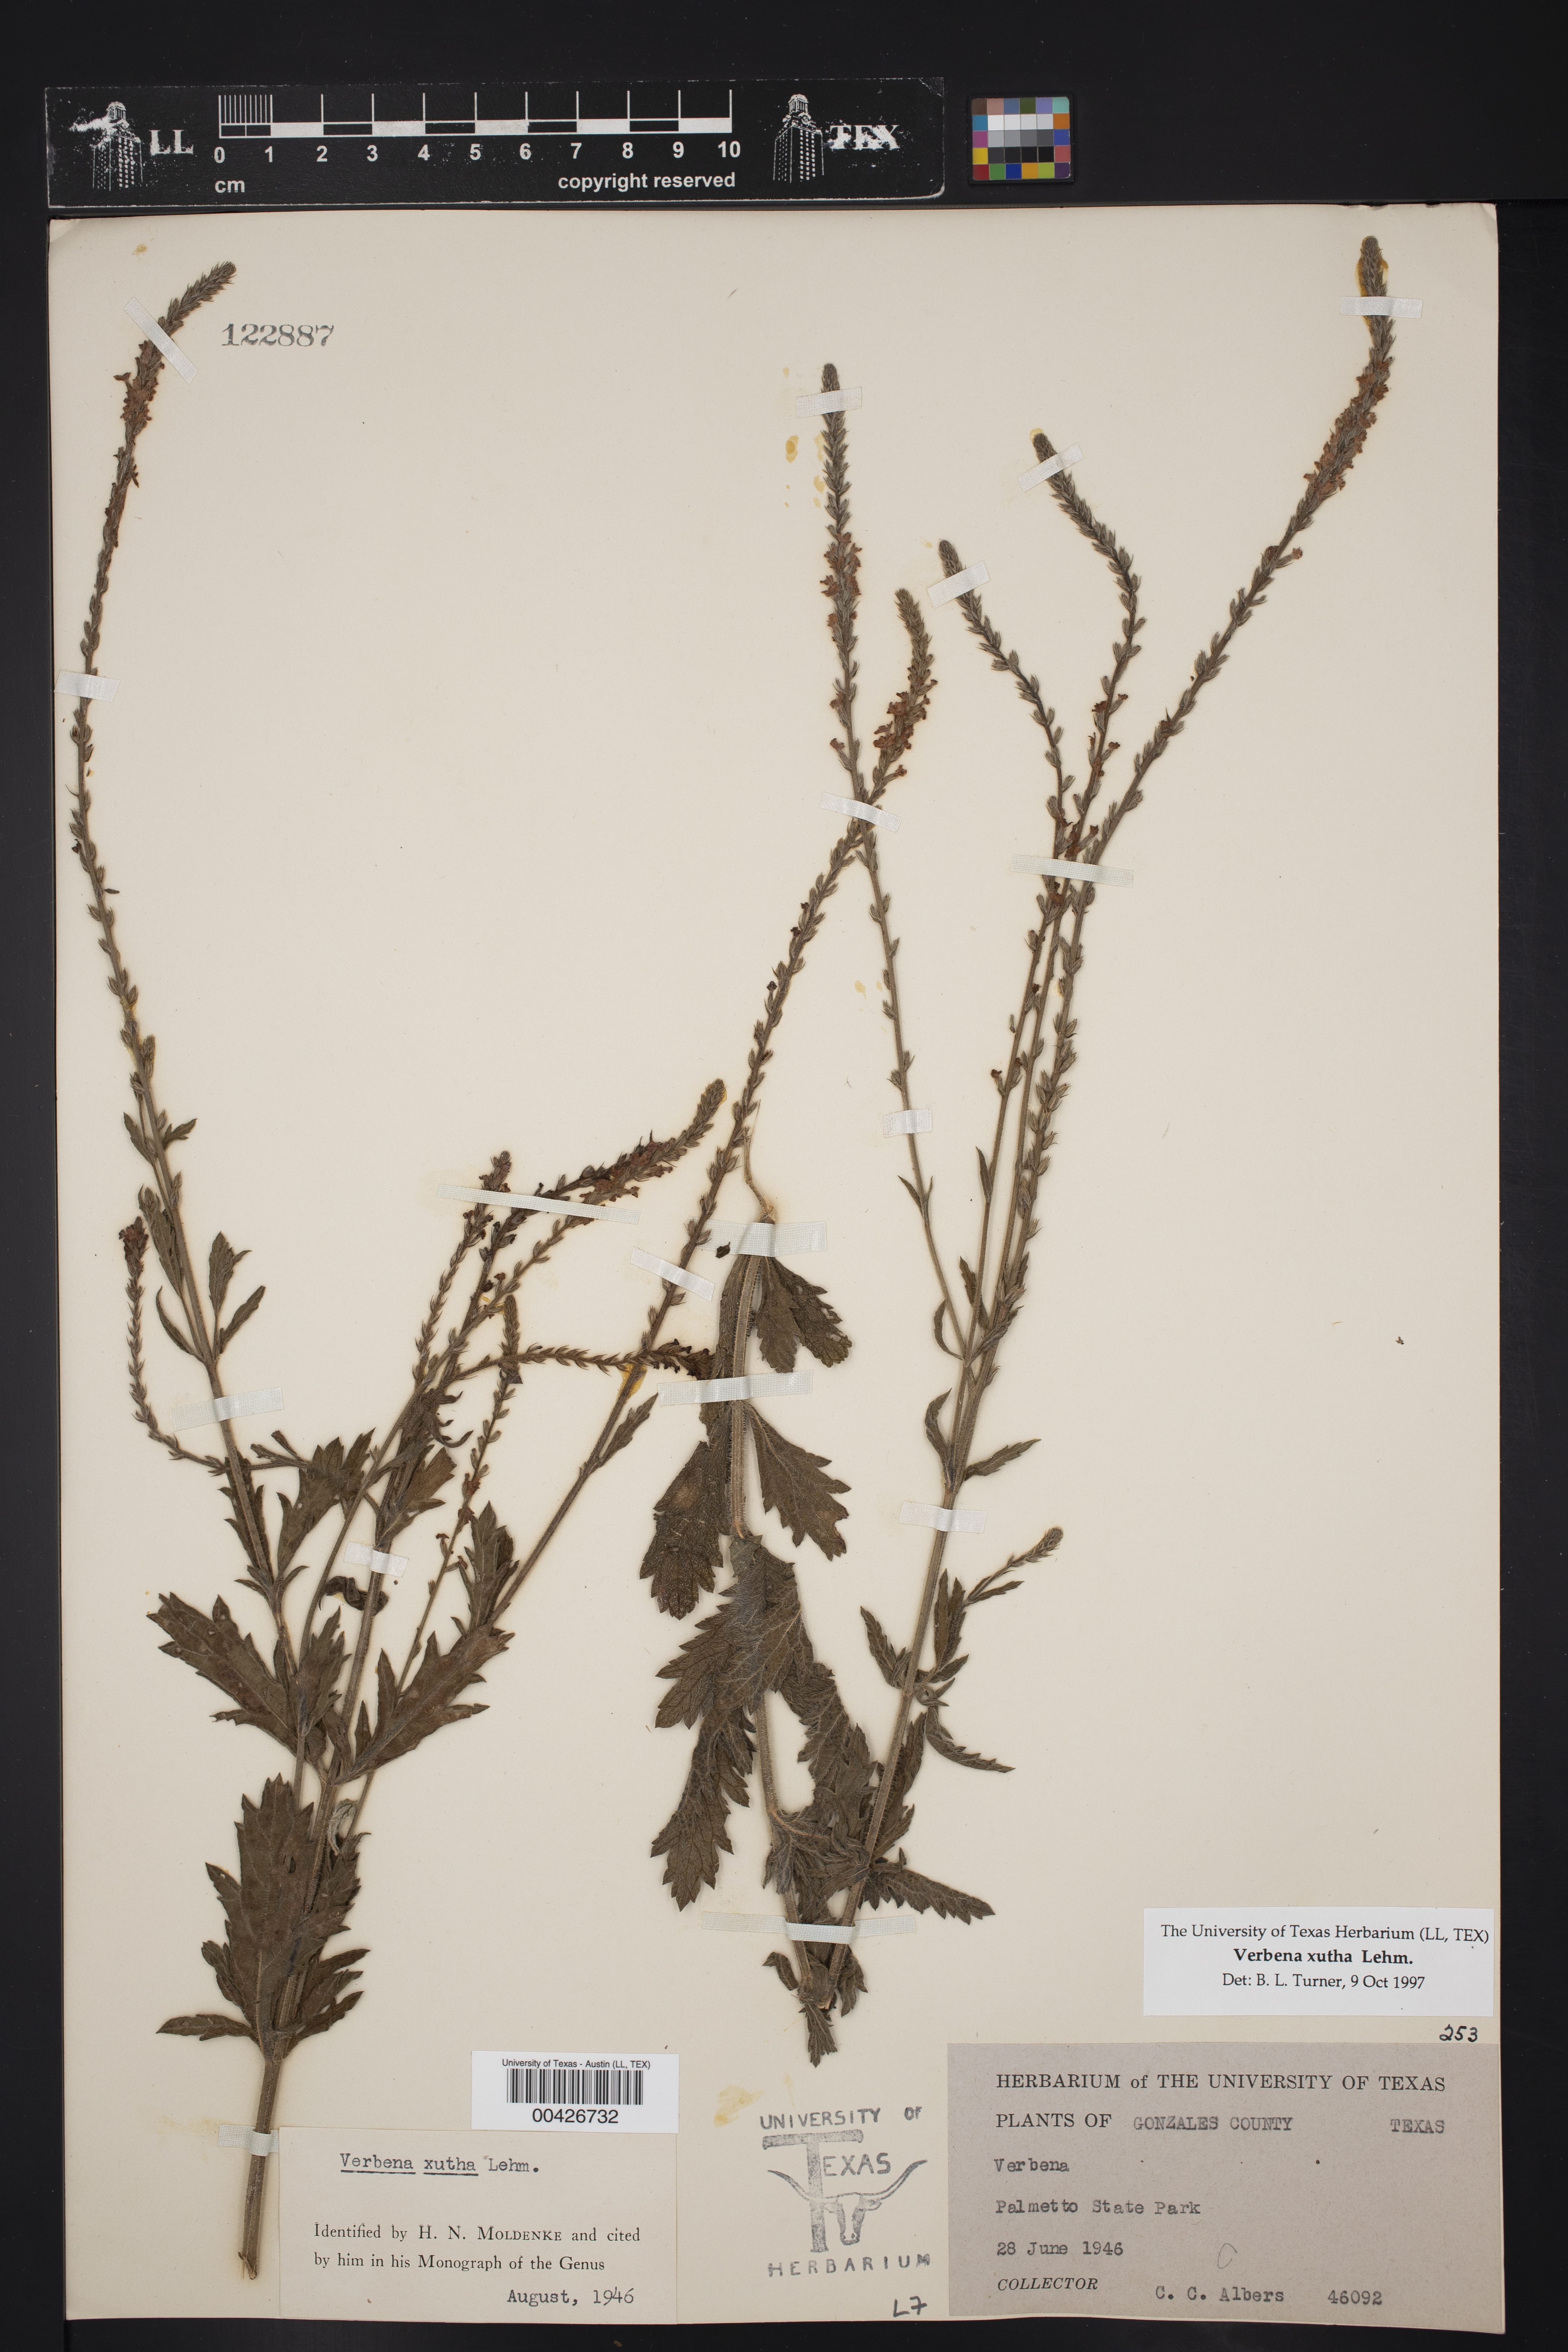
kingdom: Plantae
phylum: Tracheophyta
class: Magnoliopsida
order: Lamiales
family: Verbenaceae
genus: Verbena
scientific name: Verbena xutha
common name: Gulf vervain
